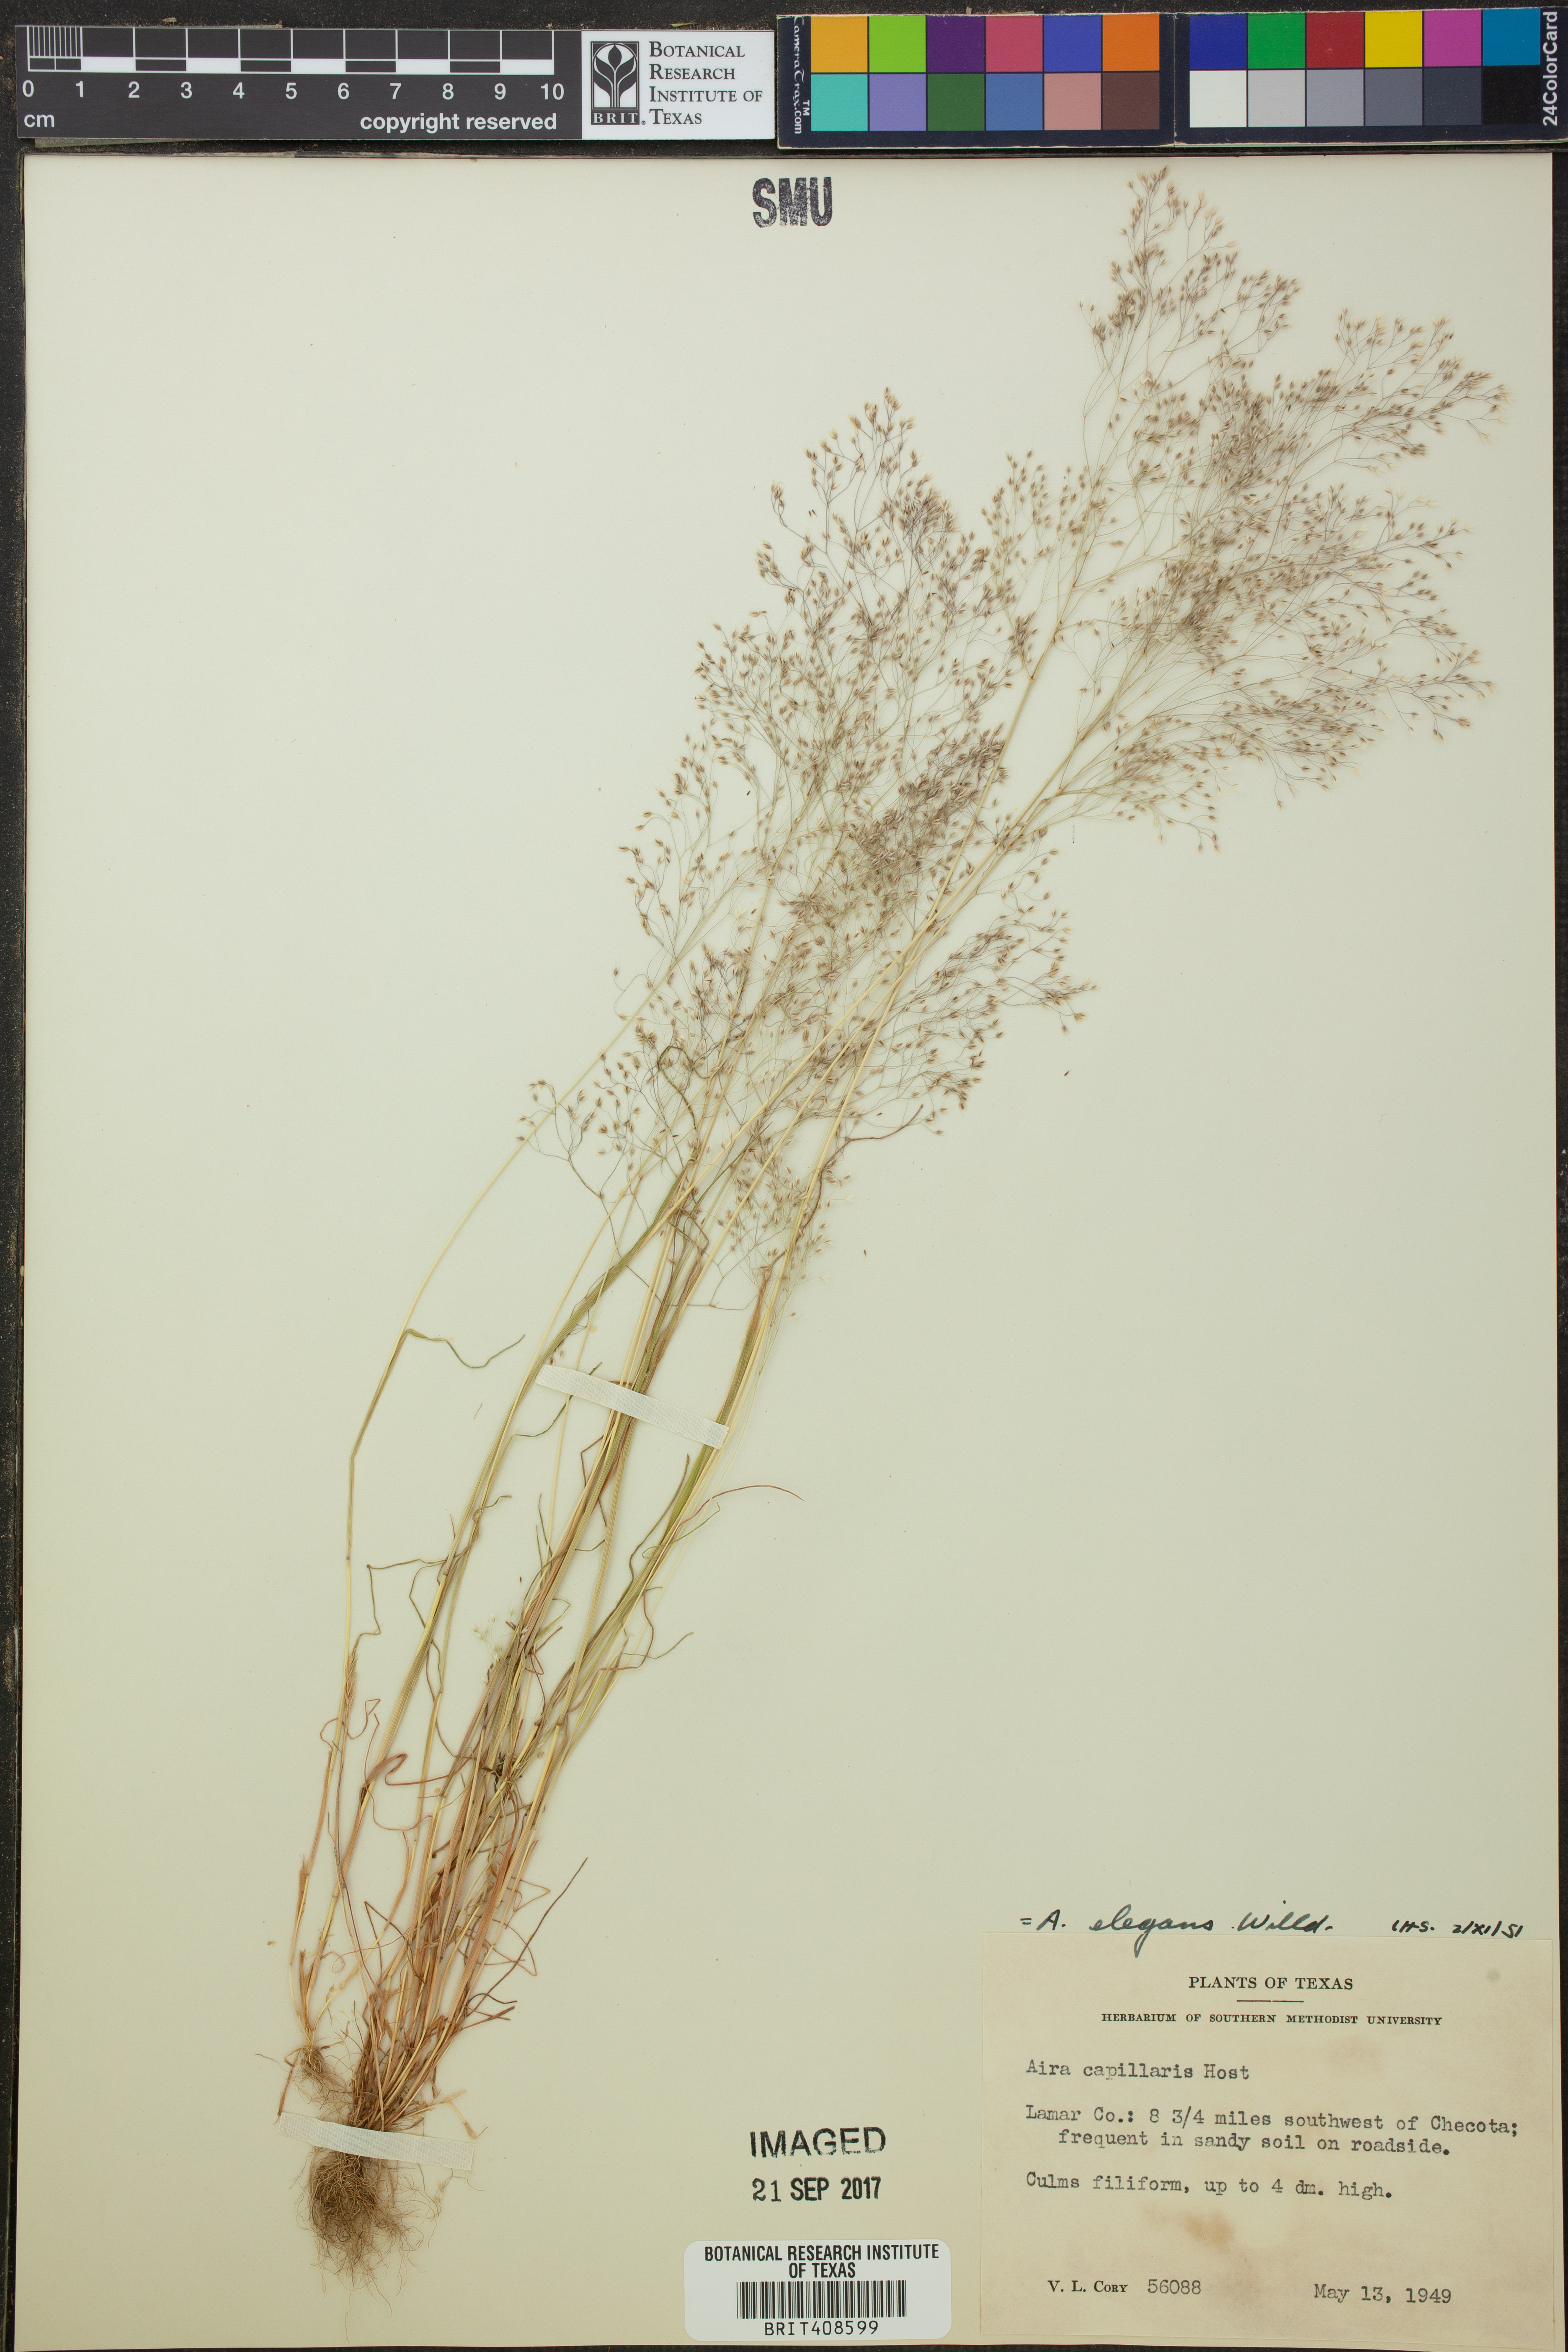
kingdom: Plantae
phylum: Tracheophyta
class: Liliopsida
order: Poales
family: Poaceae
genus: Aira
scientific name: Aira elegans
